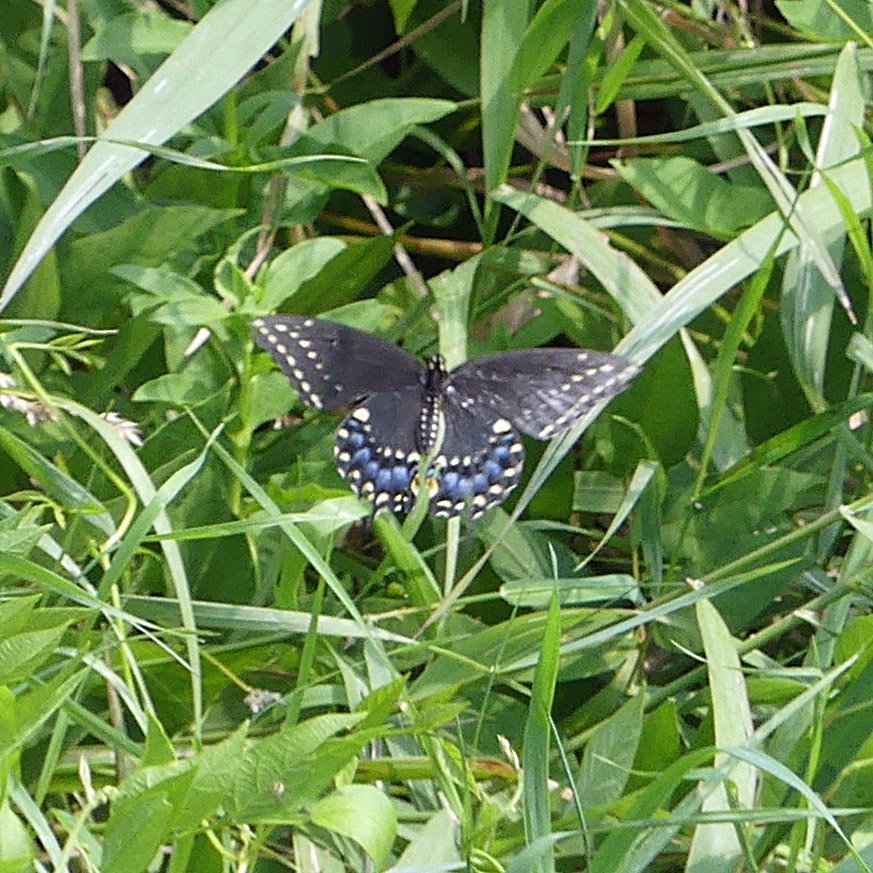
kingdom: Animalia
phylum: Arthropoda
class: Insecta
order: Lepidoptera
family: Papilionidae
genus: Papilio
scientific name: Papilio polyxenes
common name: Black Swallowtail
